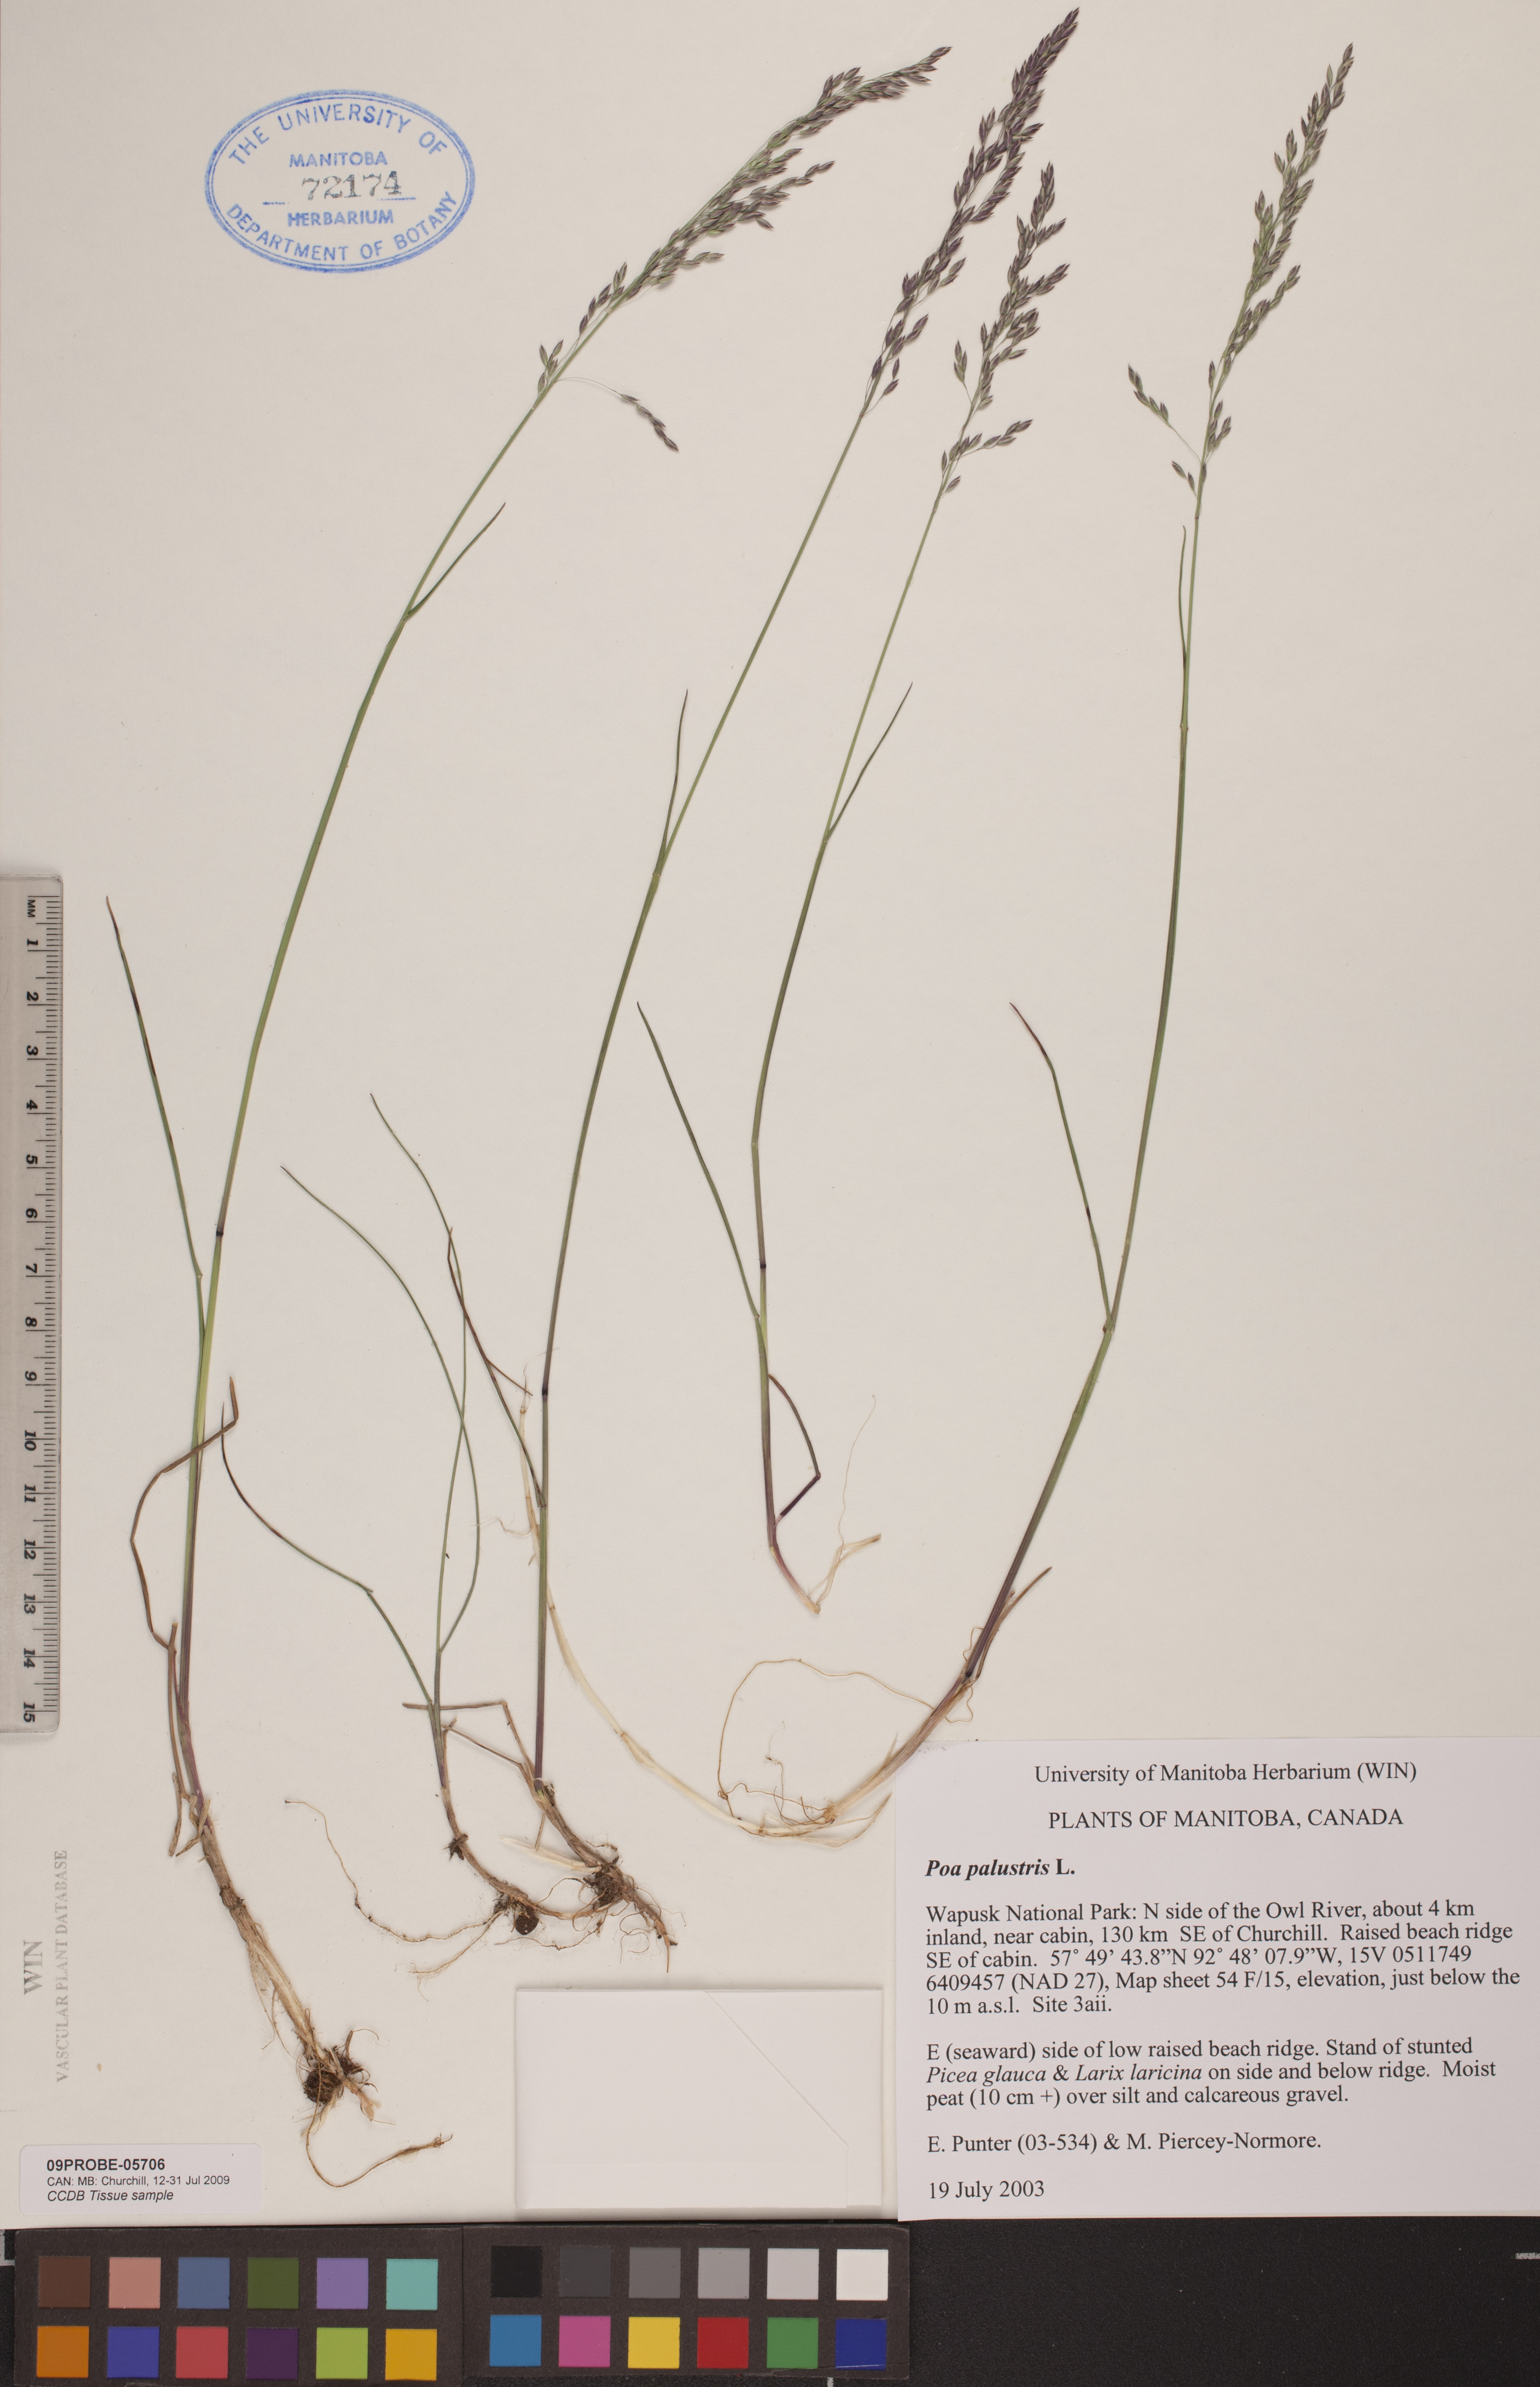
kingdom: Plantae
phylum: Tracheophyta
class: Liliopsida
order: Poales
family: Poaceae
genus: Poa
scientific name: Poa palustris
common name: Swamp meadow-grass
